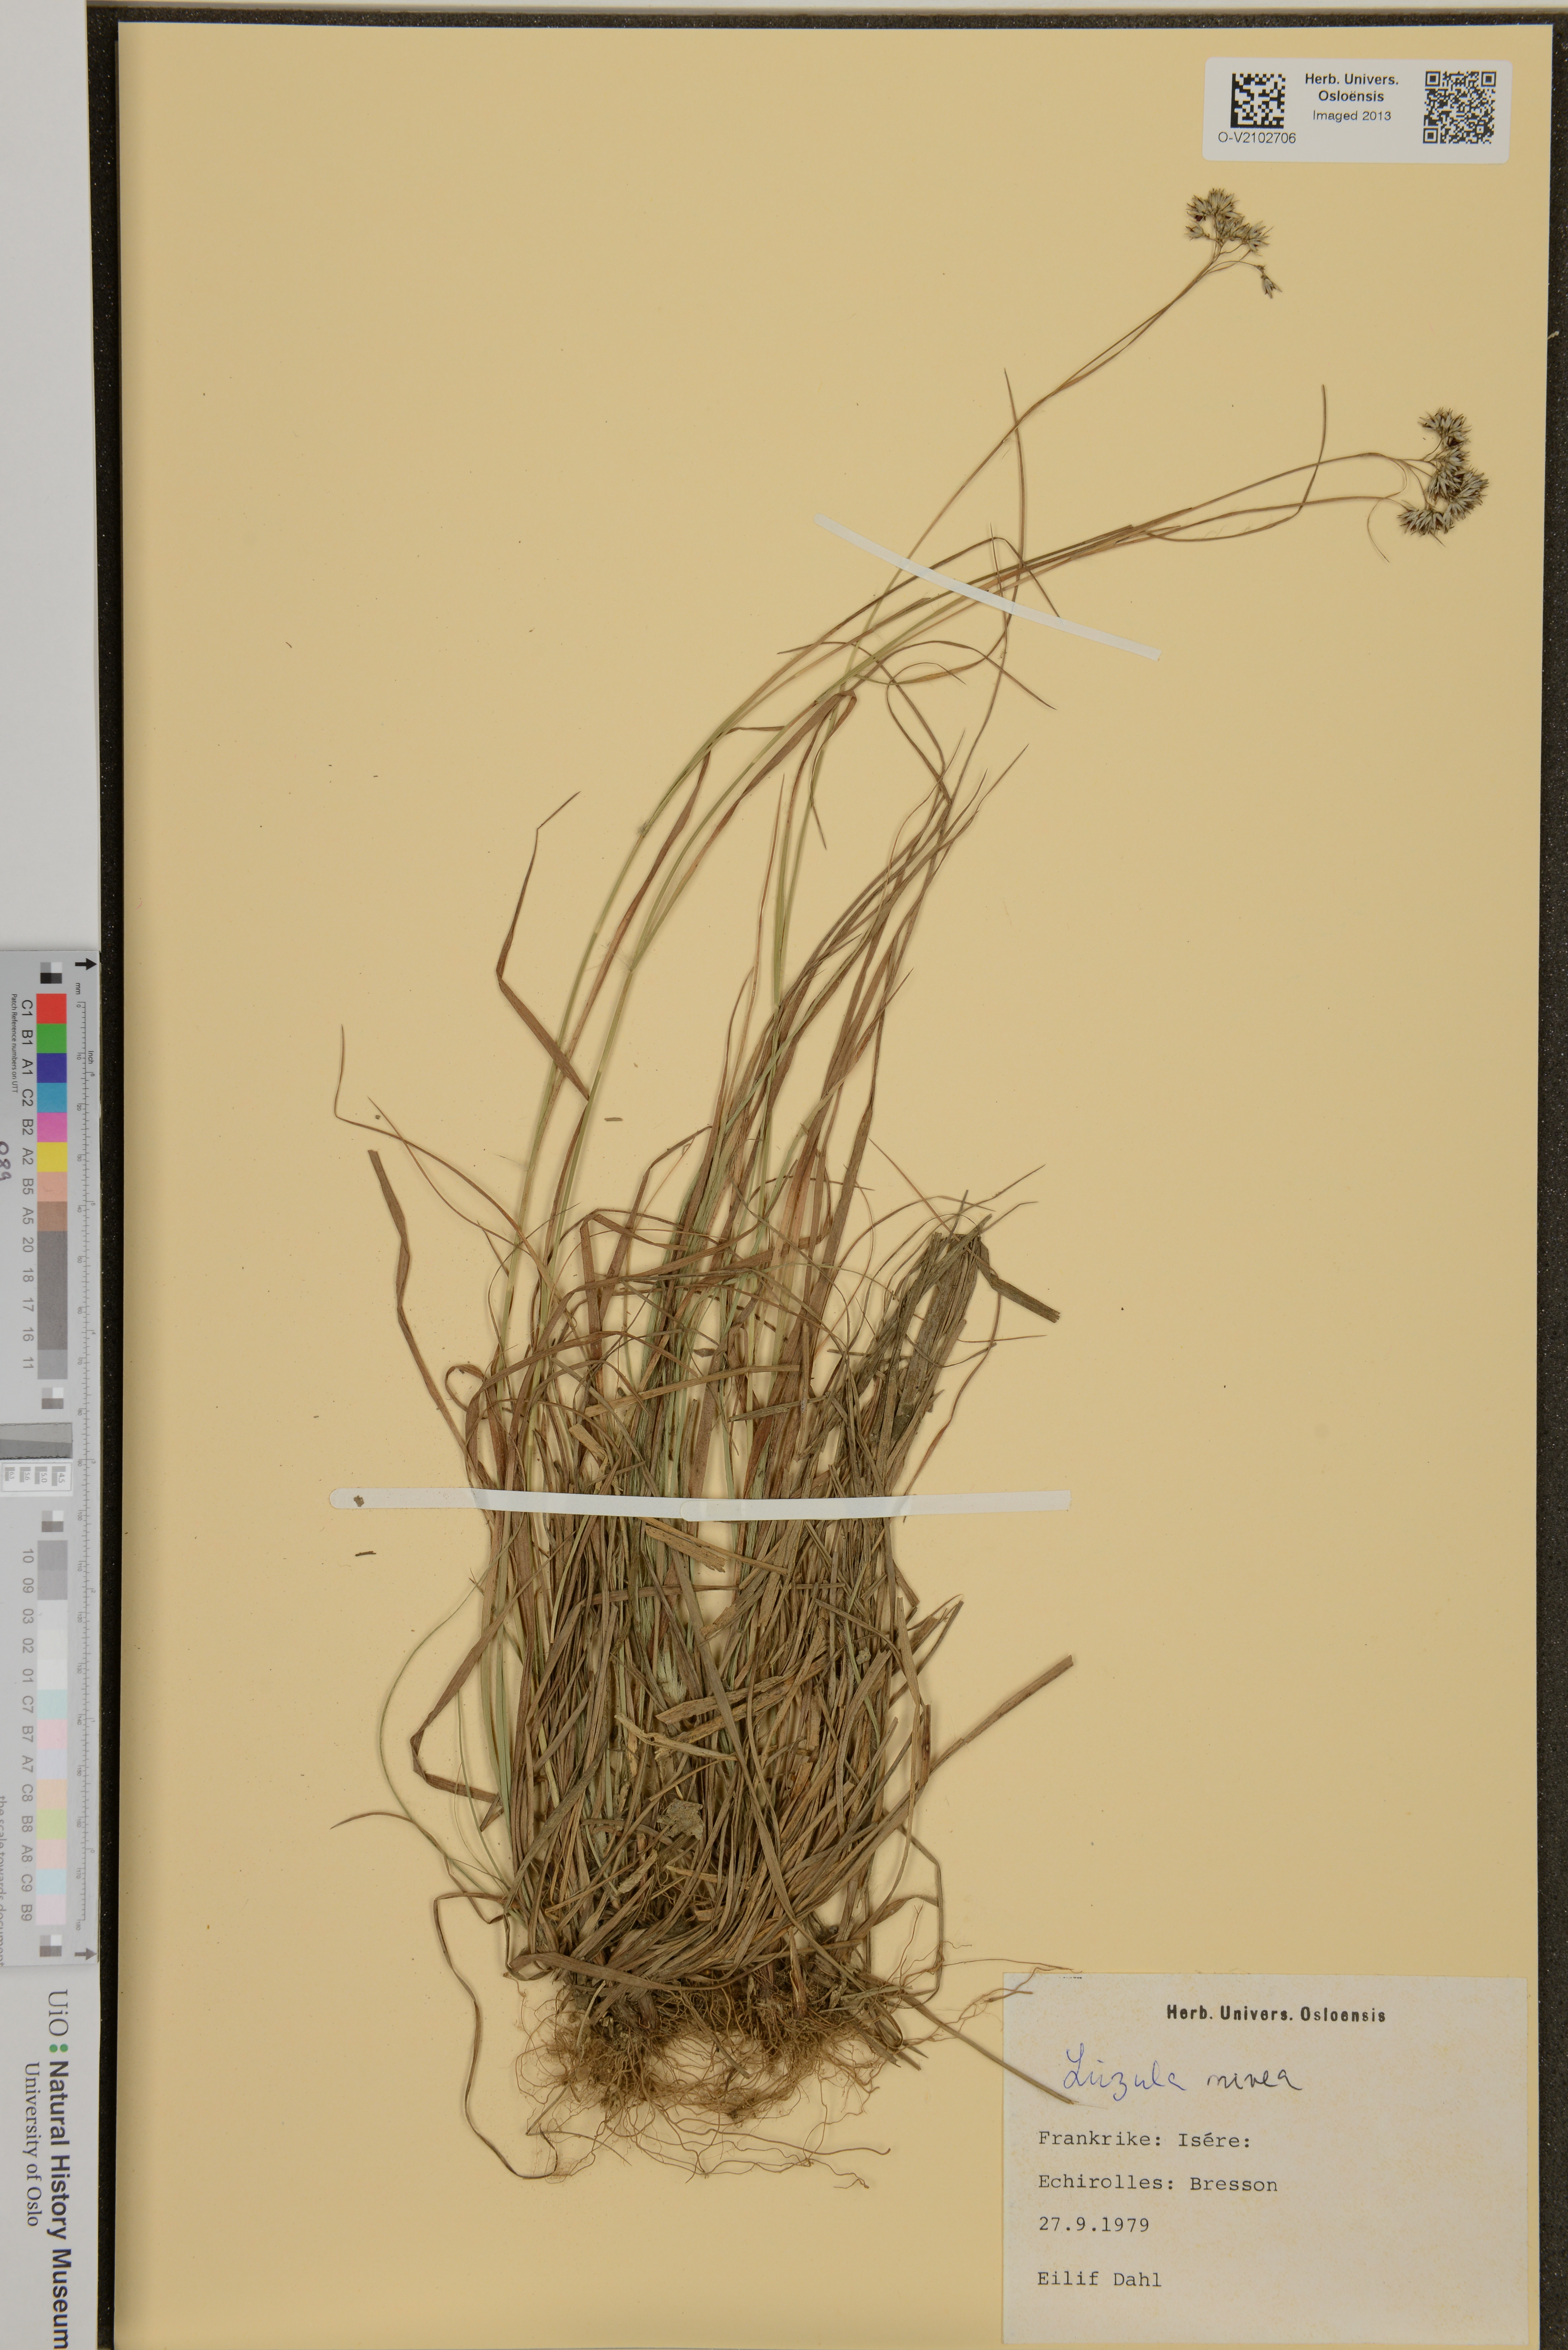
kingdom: Plantae
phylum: Tracheophyta
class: Liliopsida
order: Poales
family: Juncaceae
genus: Luzula
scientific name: Luzula nivea
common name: Snow-white wood-rush
